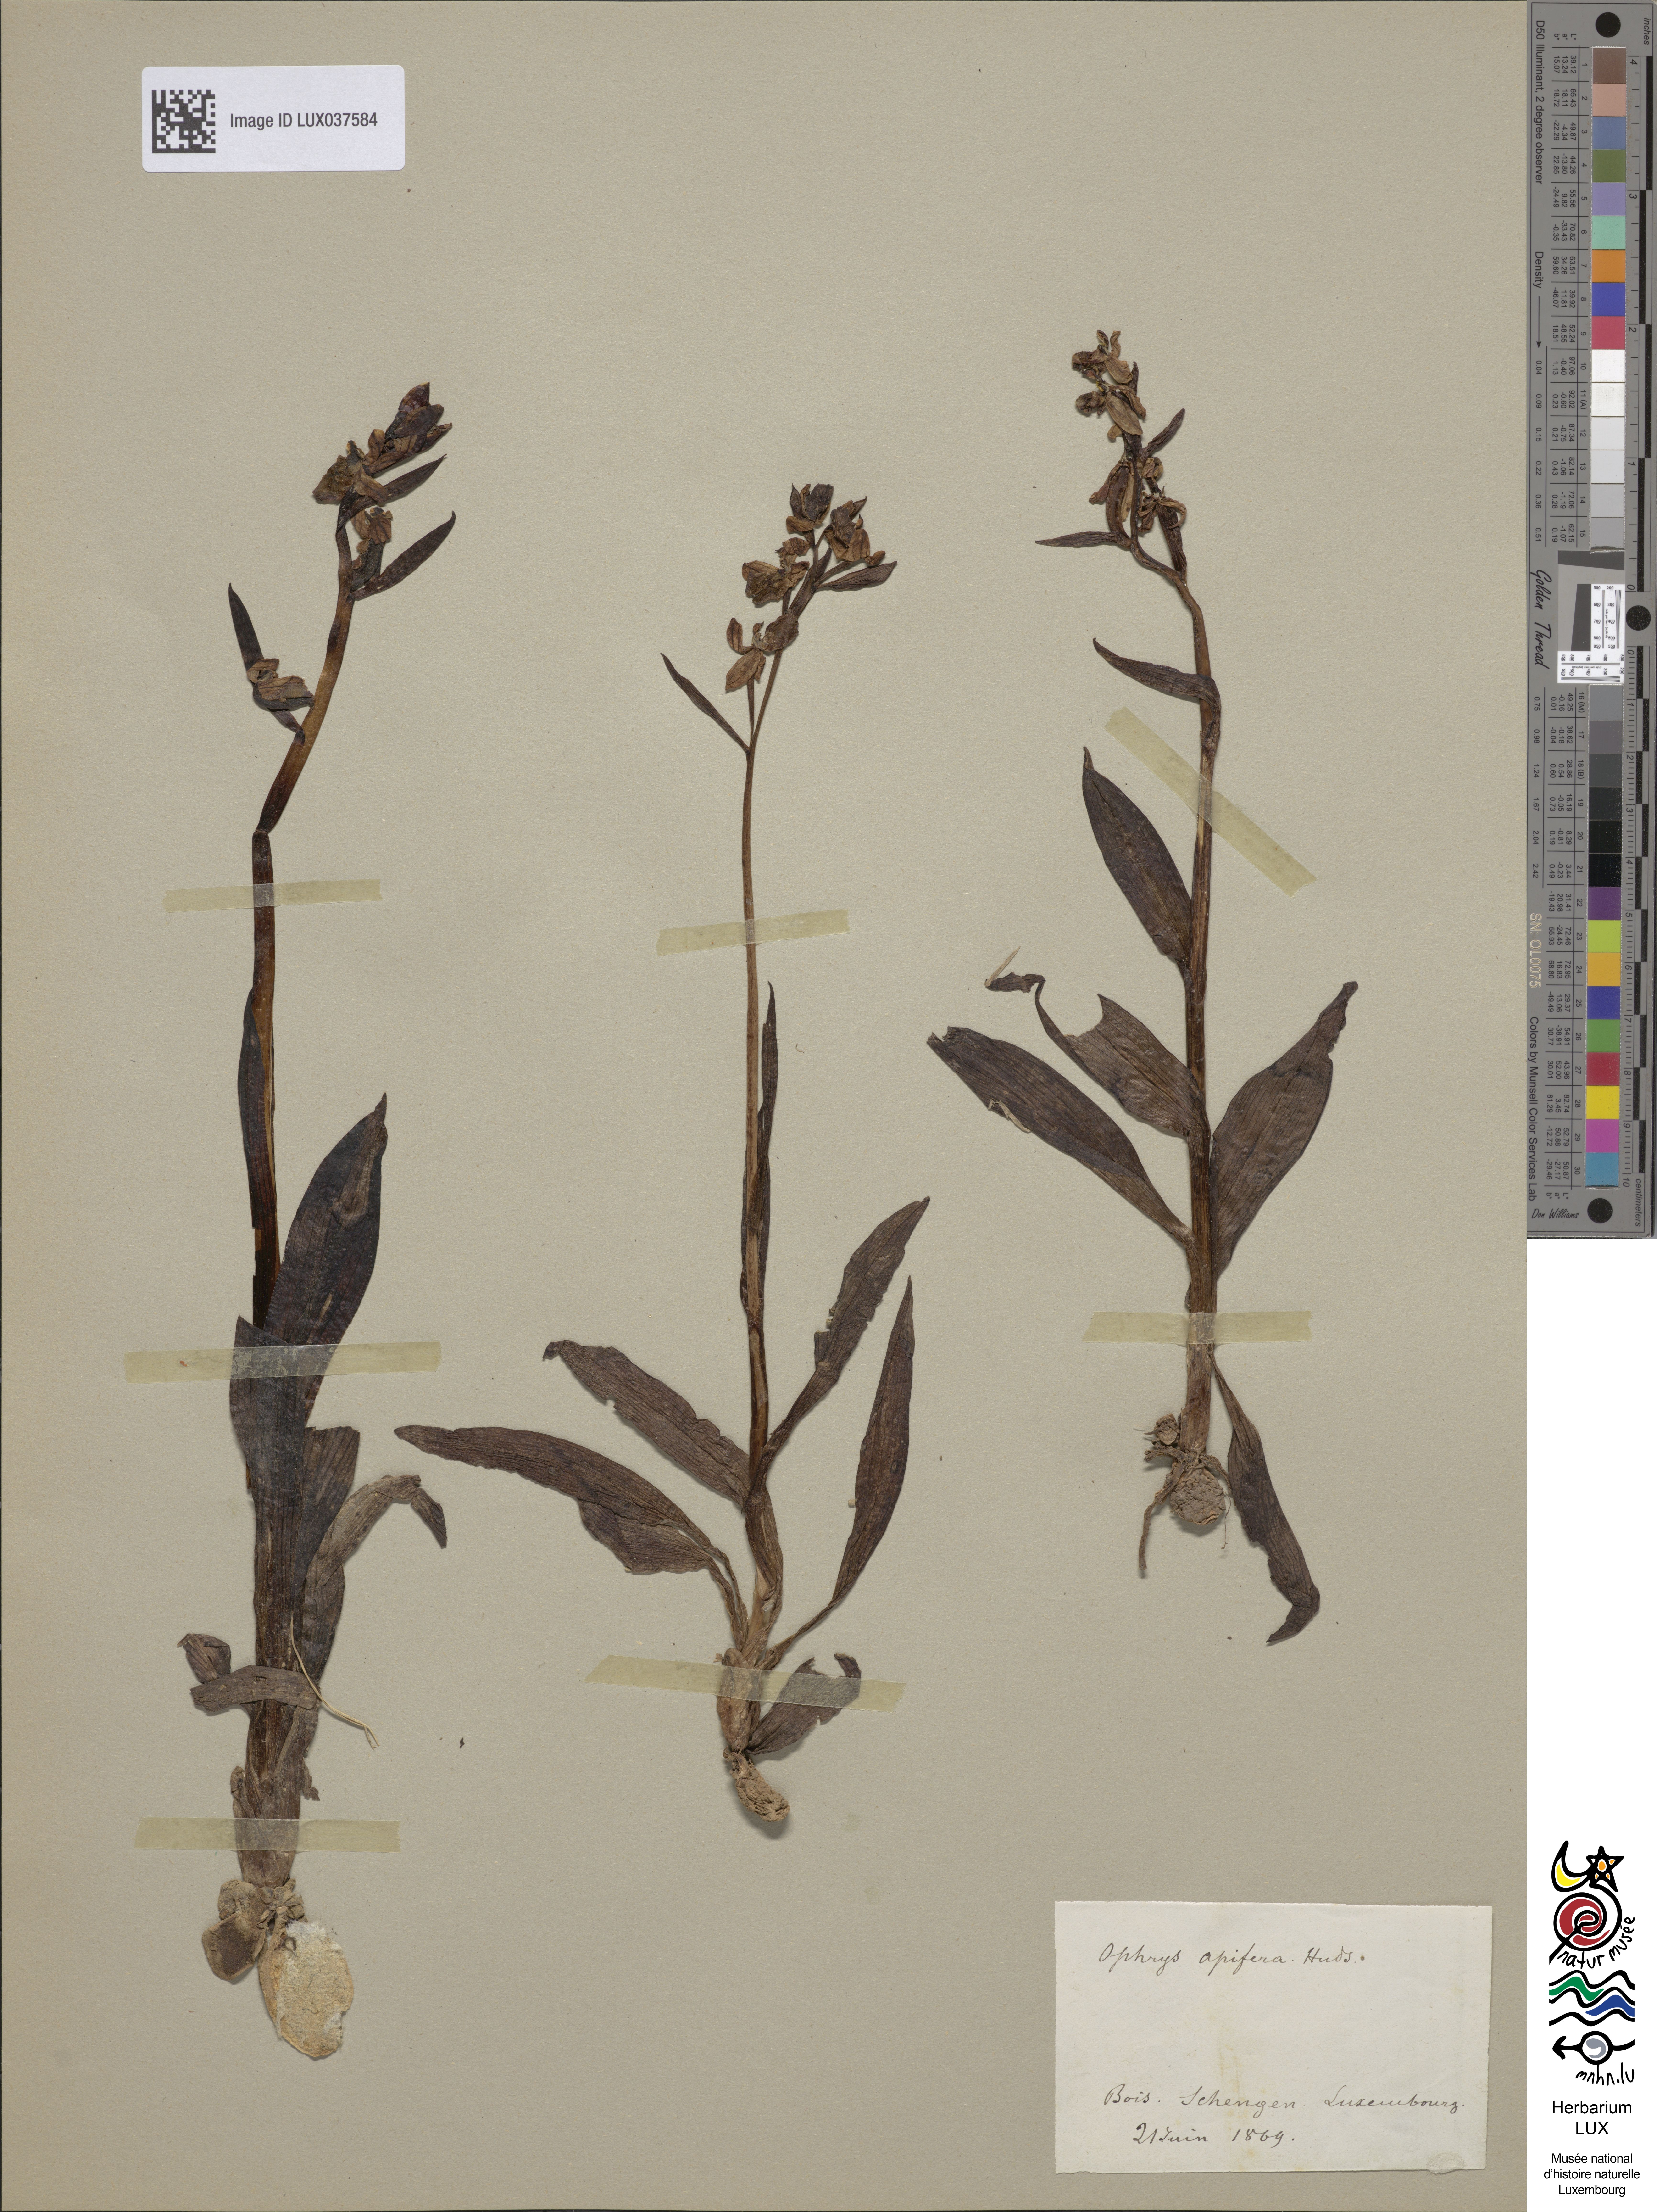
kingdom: Plantae
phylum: Tracheophyta
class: Liliopsida
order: Asparagales
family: Orchidaceae
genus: Ophrys
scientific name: Ophrys apifera
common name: Bee orchid
